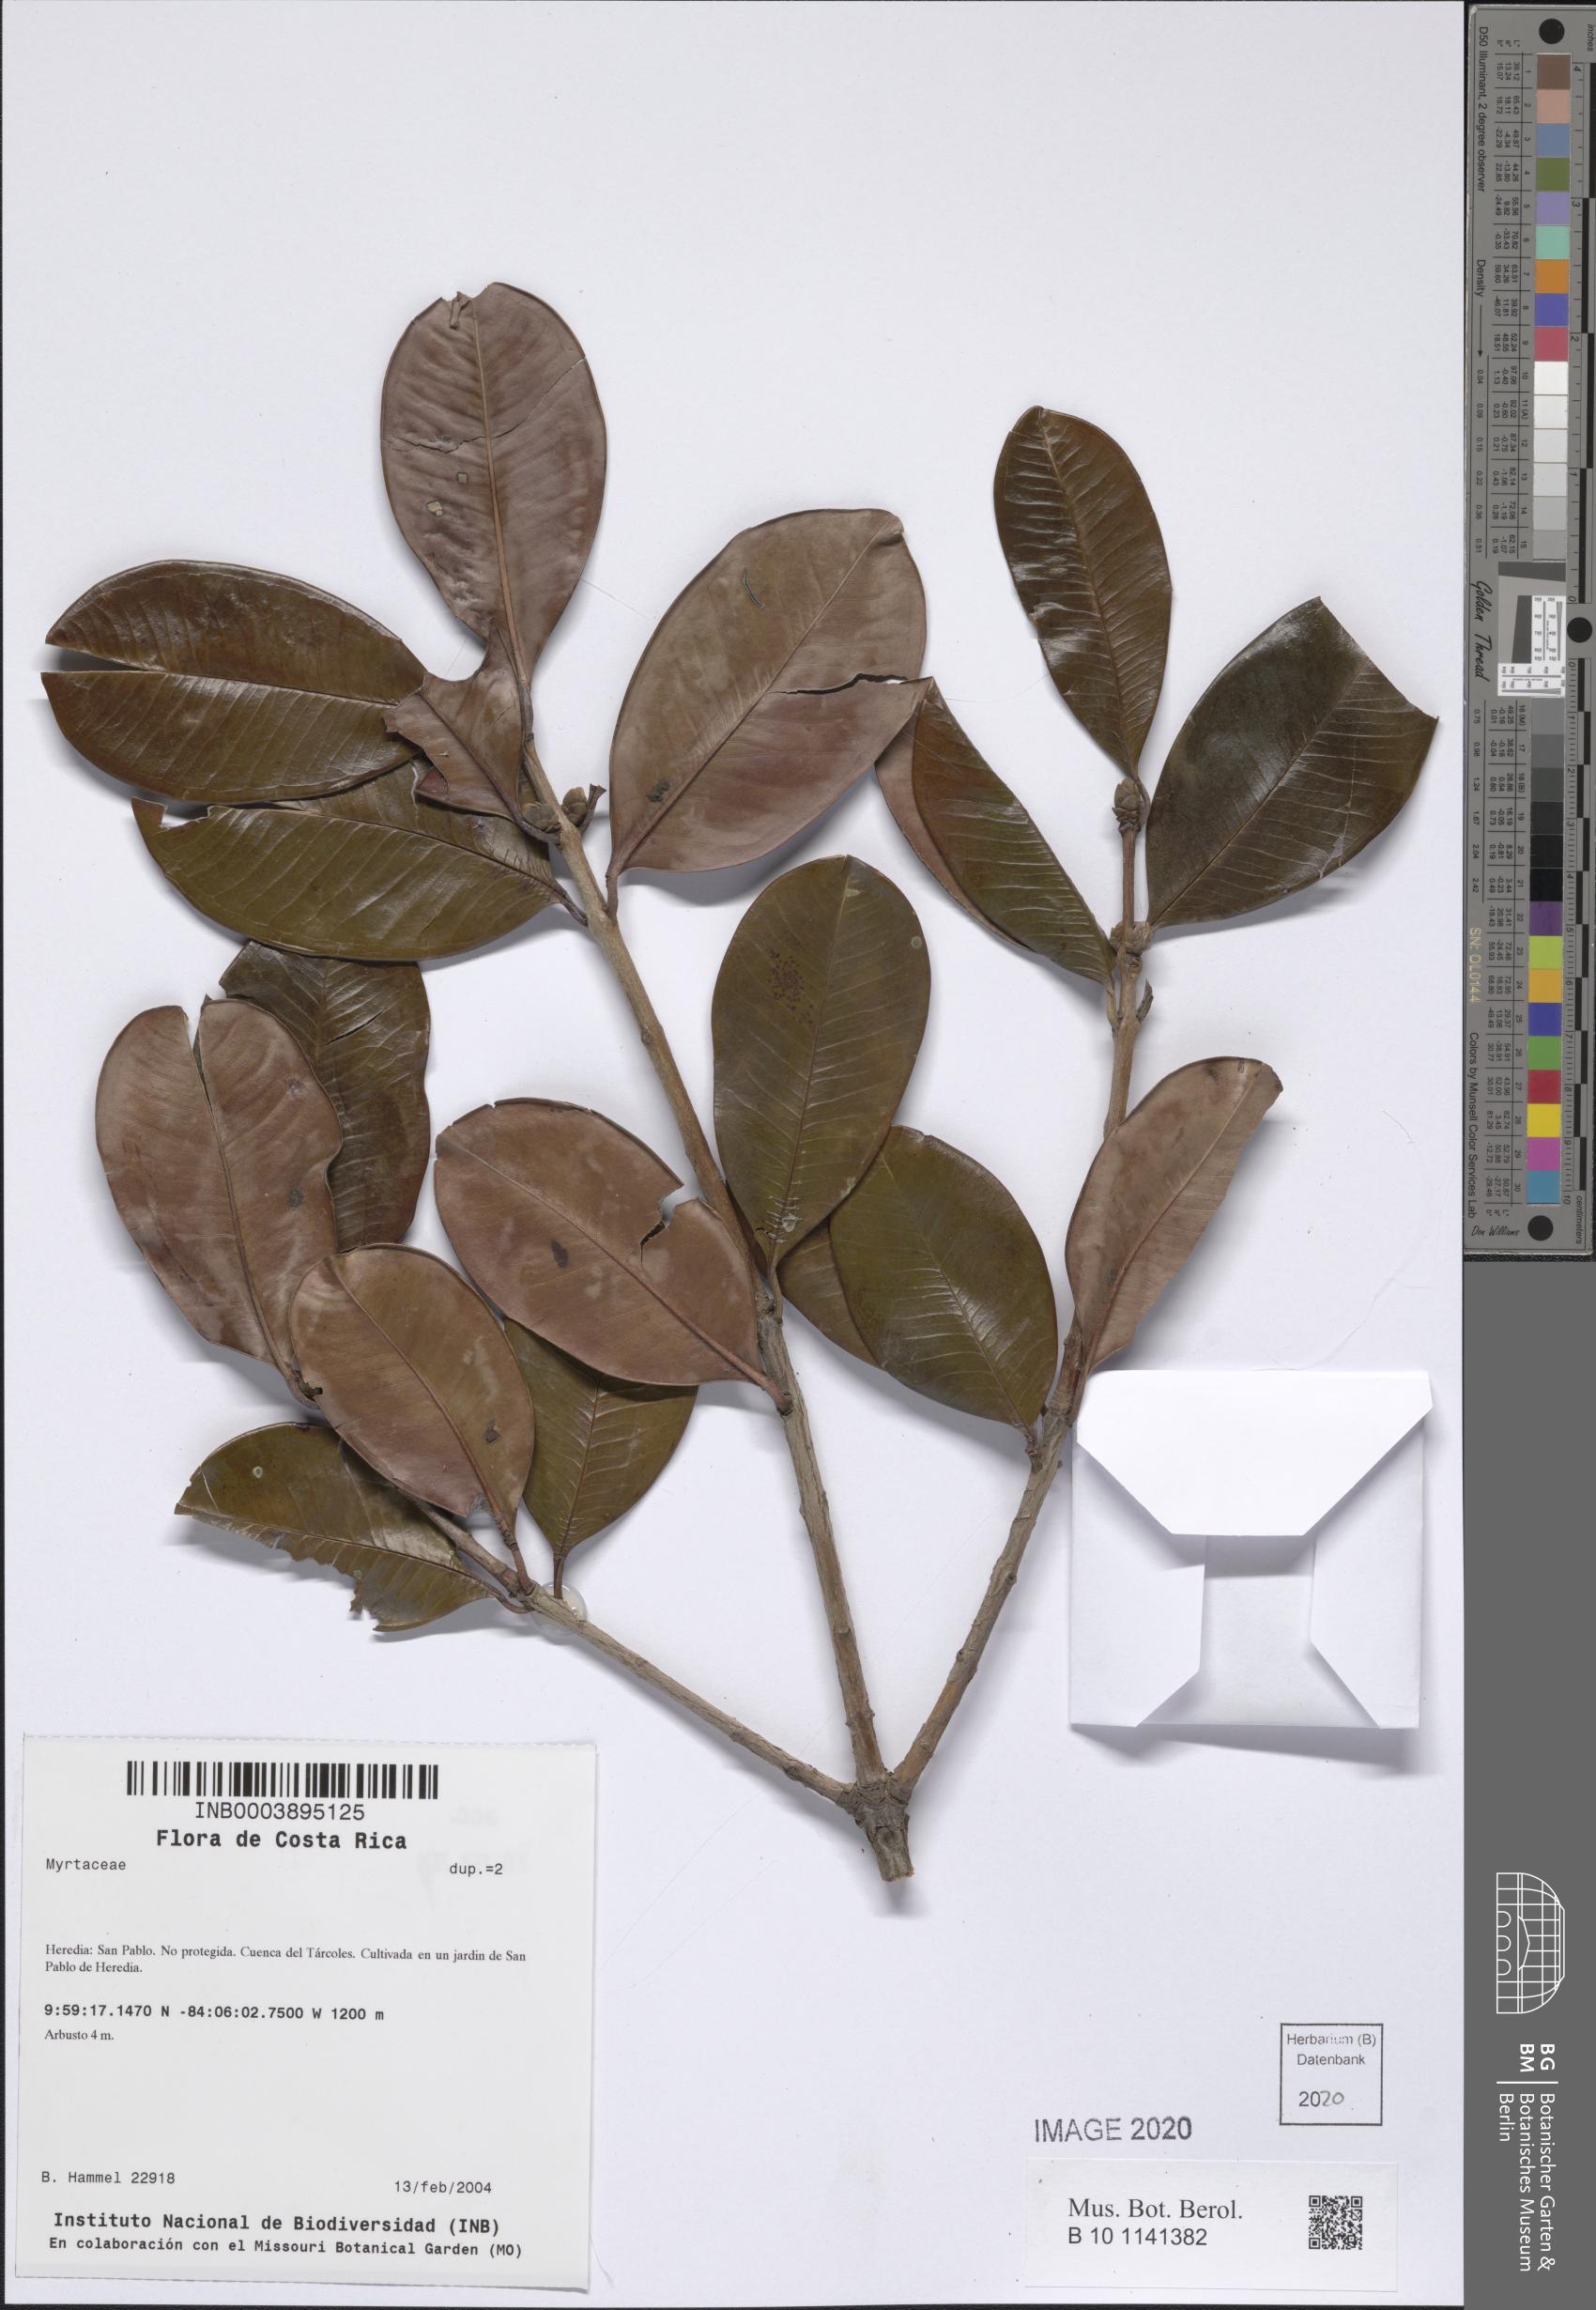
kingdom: Plantae
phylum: Tracheophyta
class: Magnoliopsida
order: Myrtales
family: Myrtaceae
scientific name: Myrtaceae
